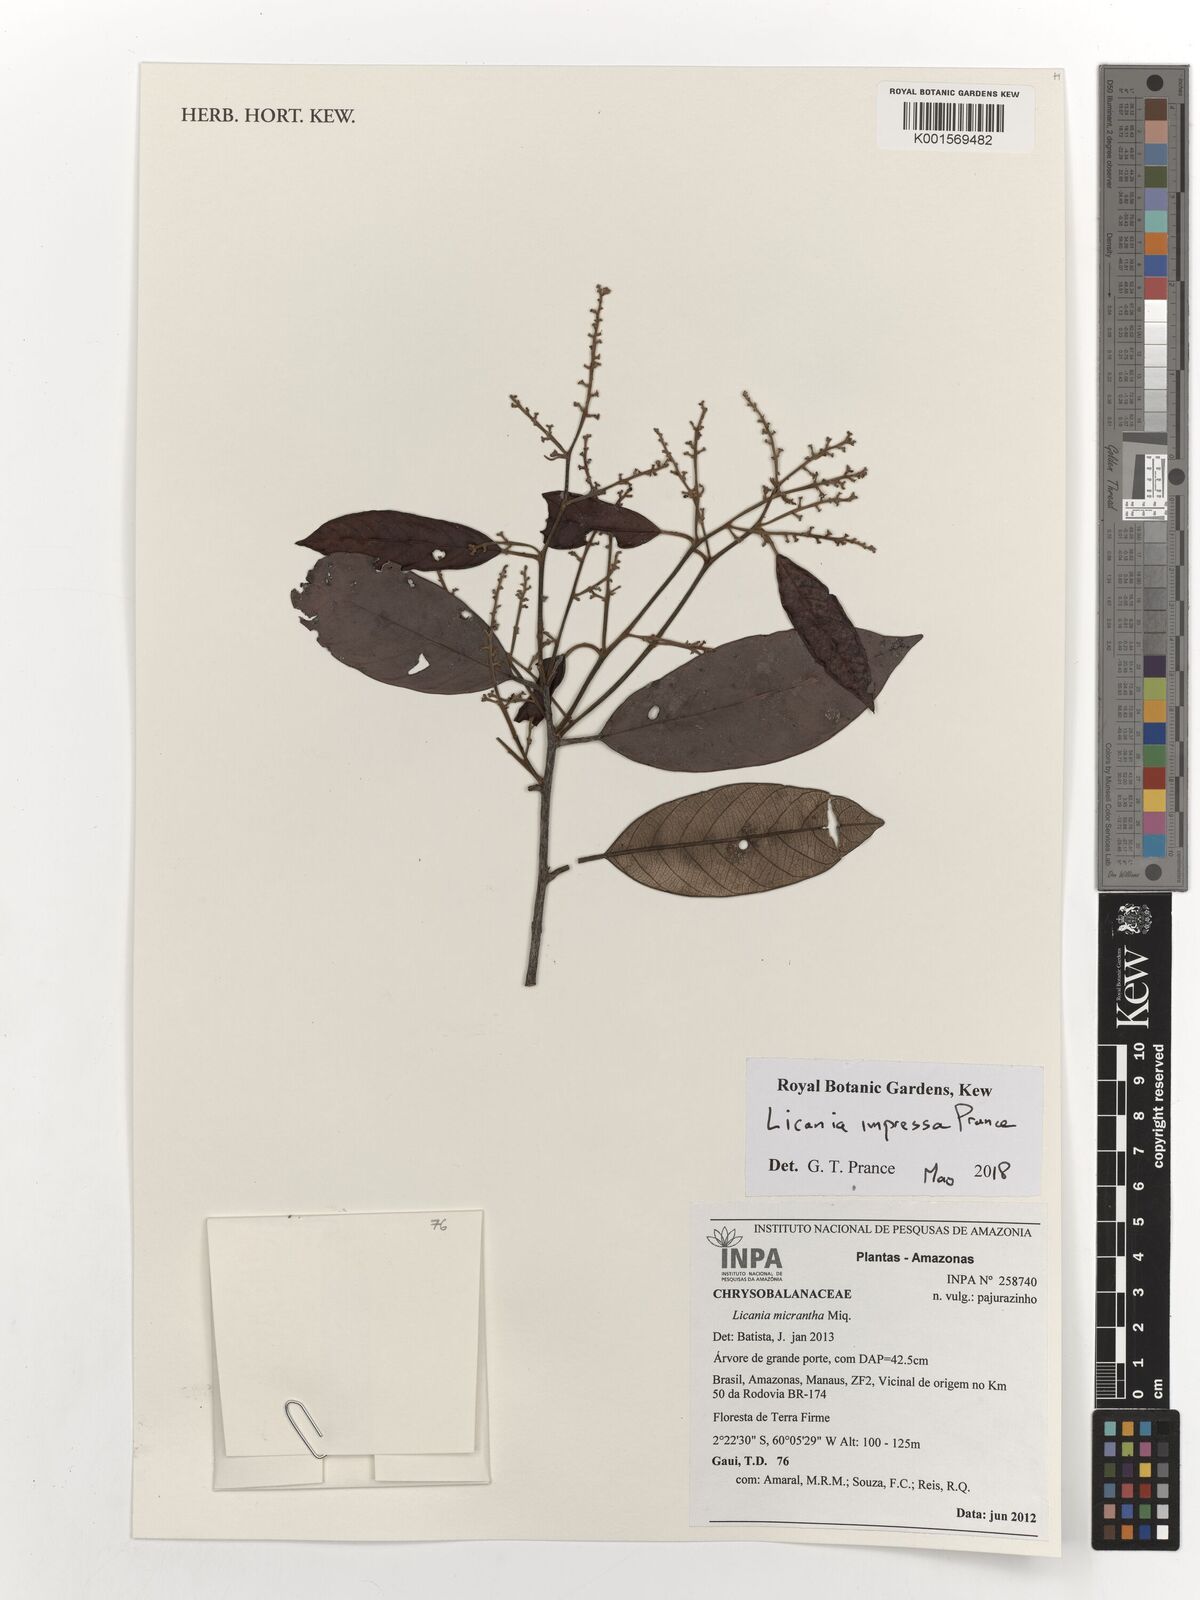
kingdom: Plantae
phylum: Tracheophyta
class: Magnoliopsida
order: Malpighiales
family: Chrysobalanaceae
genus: Licania
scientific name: Licania micrantha
